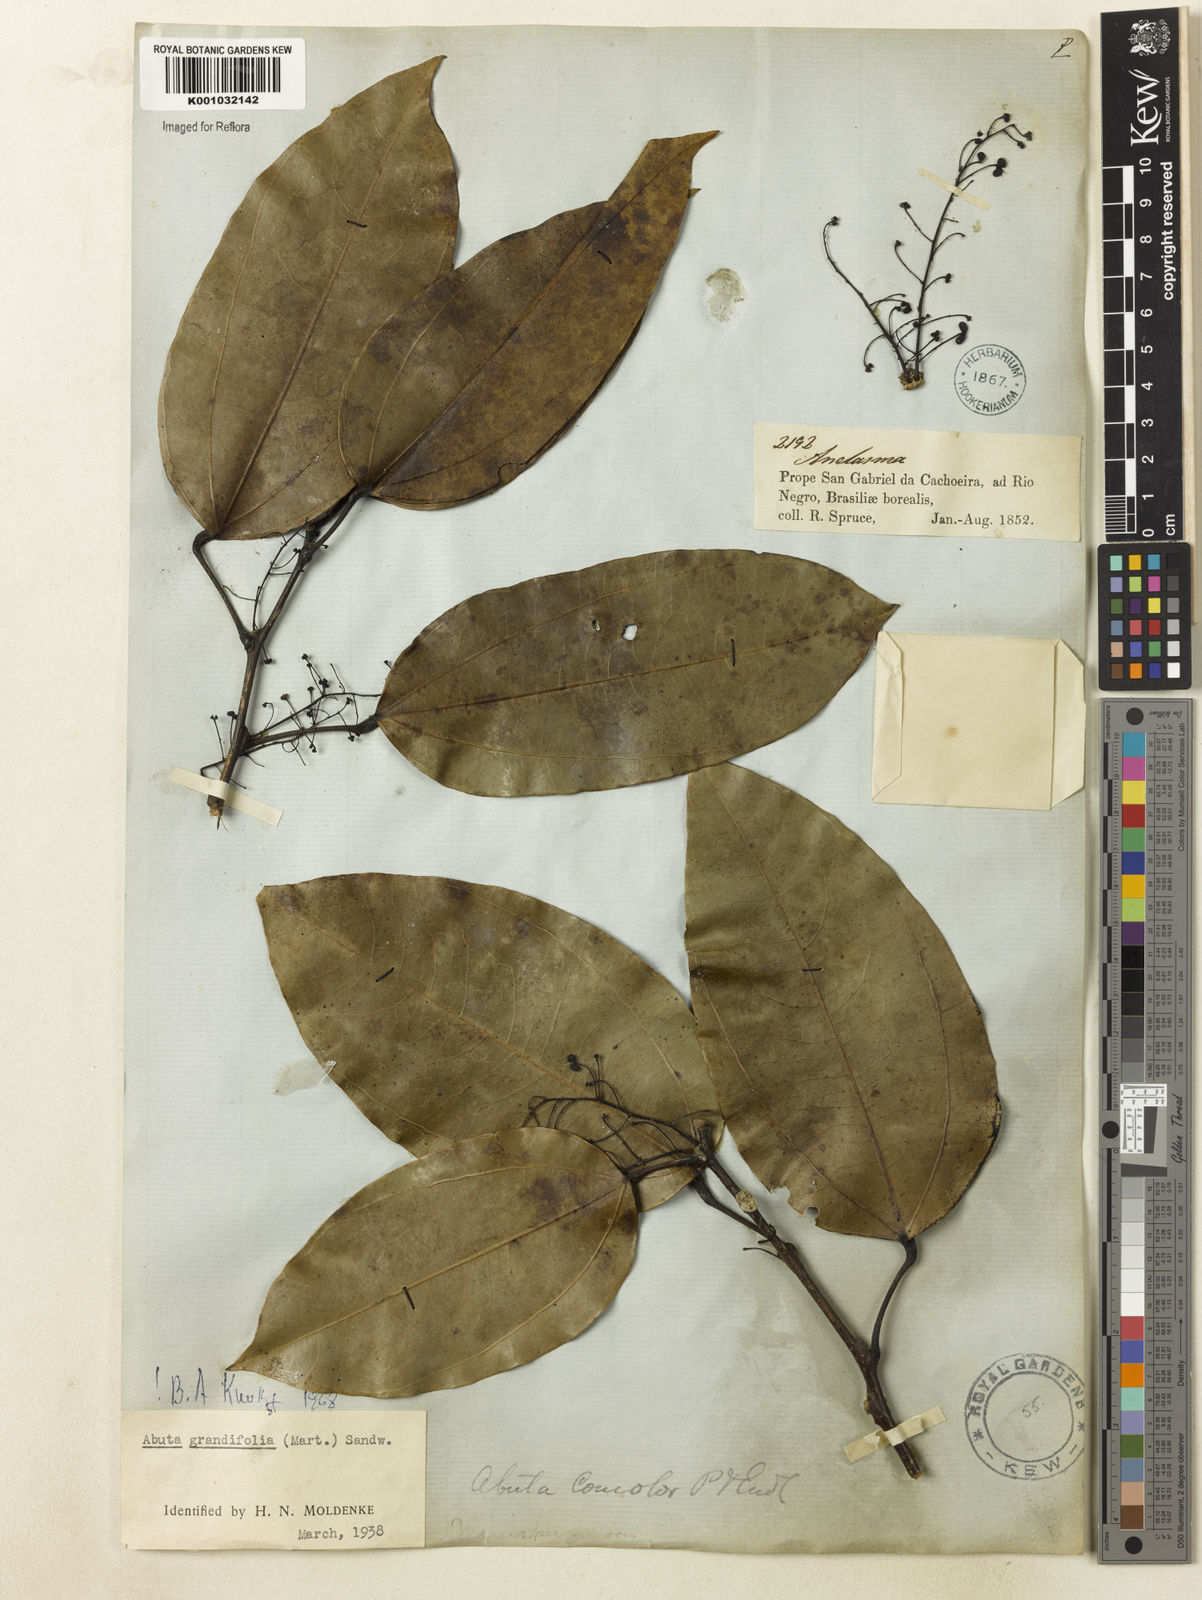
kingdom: Plantae
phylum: Tracheophyta
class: Magnoliopsida
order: Ranunculales
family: Menispermaceae
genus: Abuta
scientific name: Abuta grandifolia
